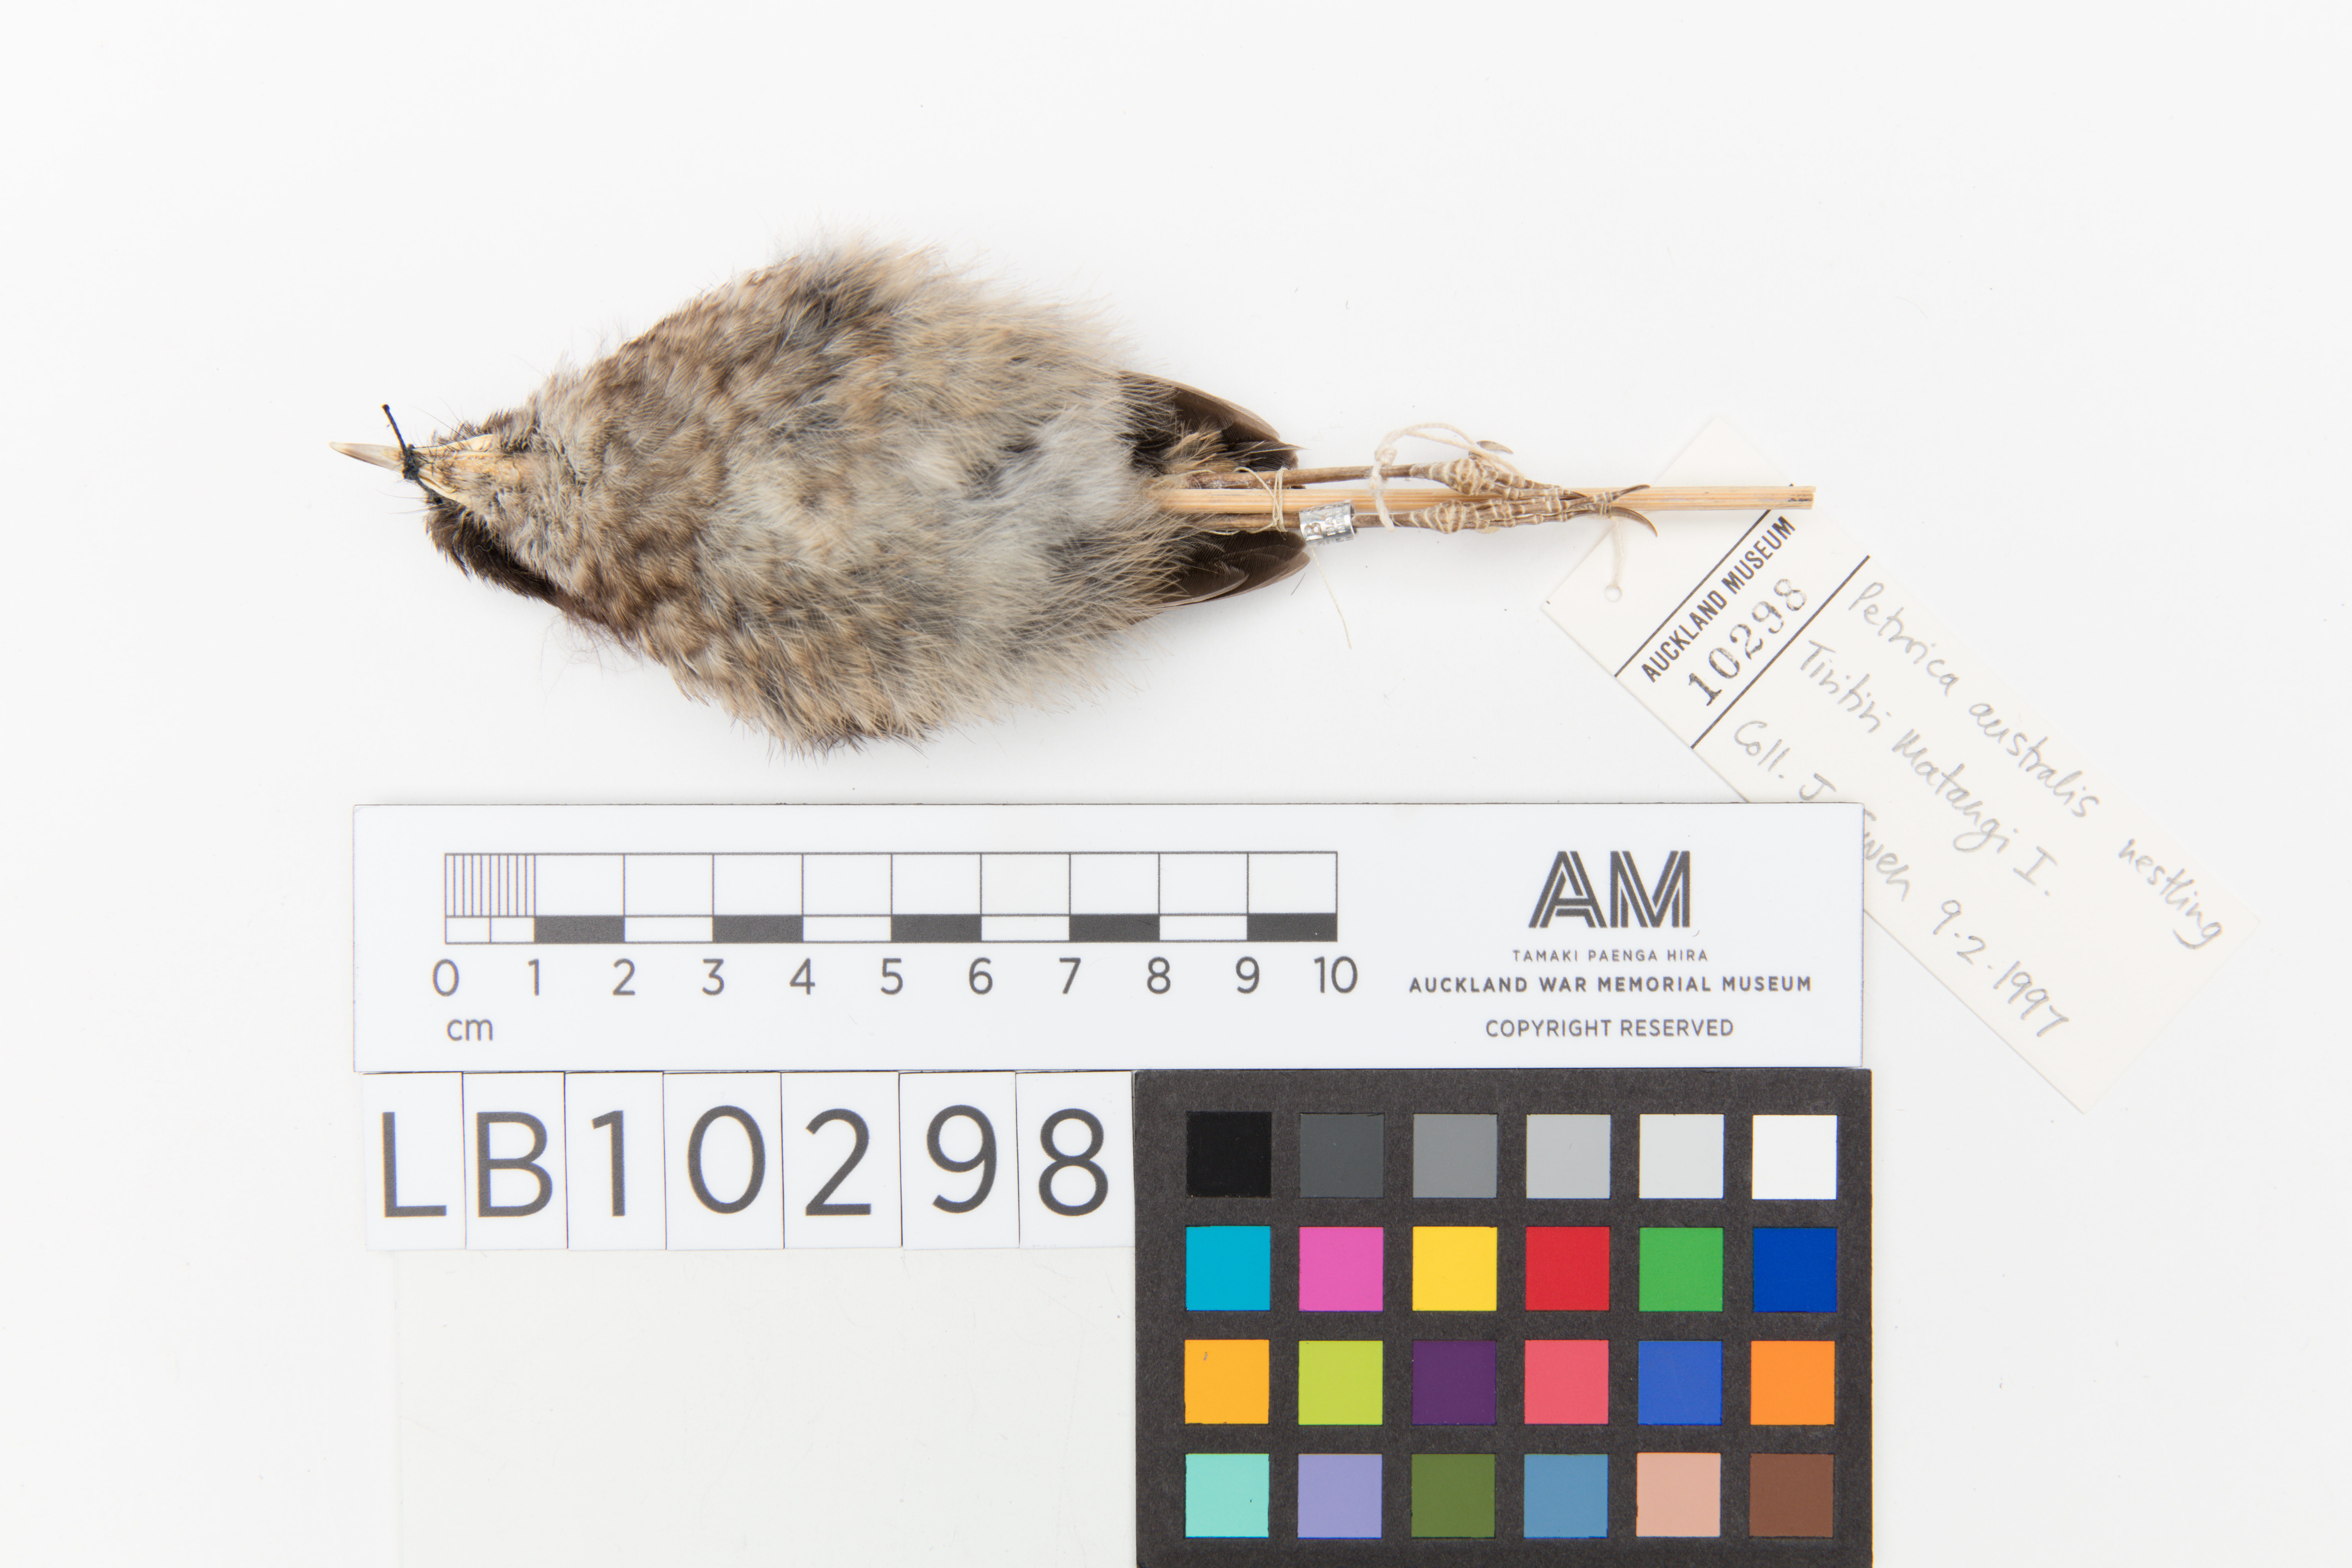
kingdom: Animalia
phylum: Chordata
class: Aves
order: Passeriformes
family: Petroicidae
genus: Petroica
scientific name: Petroica australis
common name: New zealand robin
